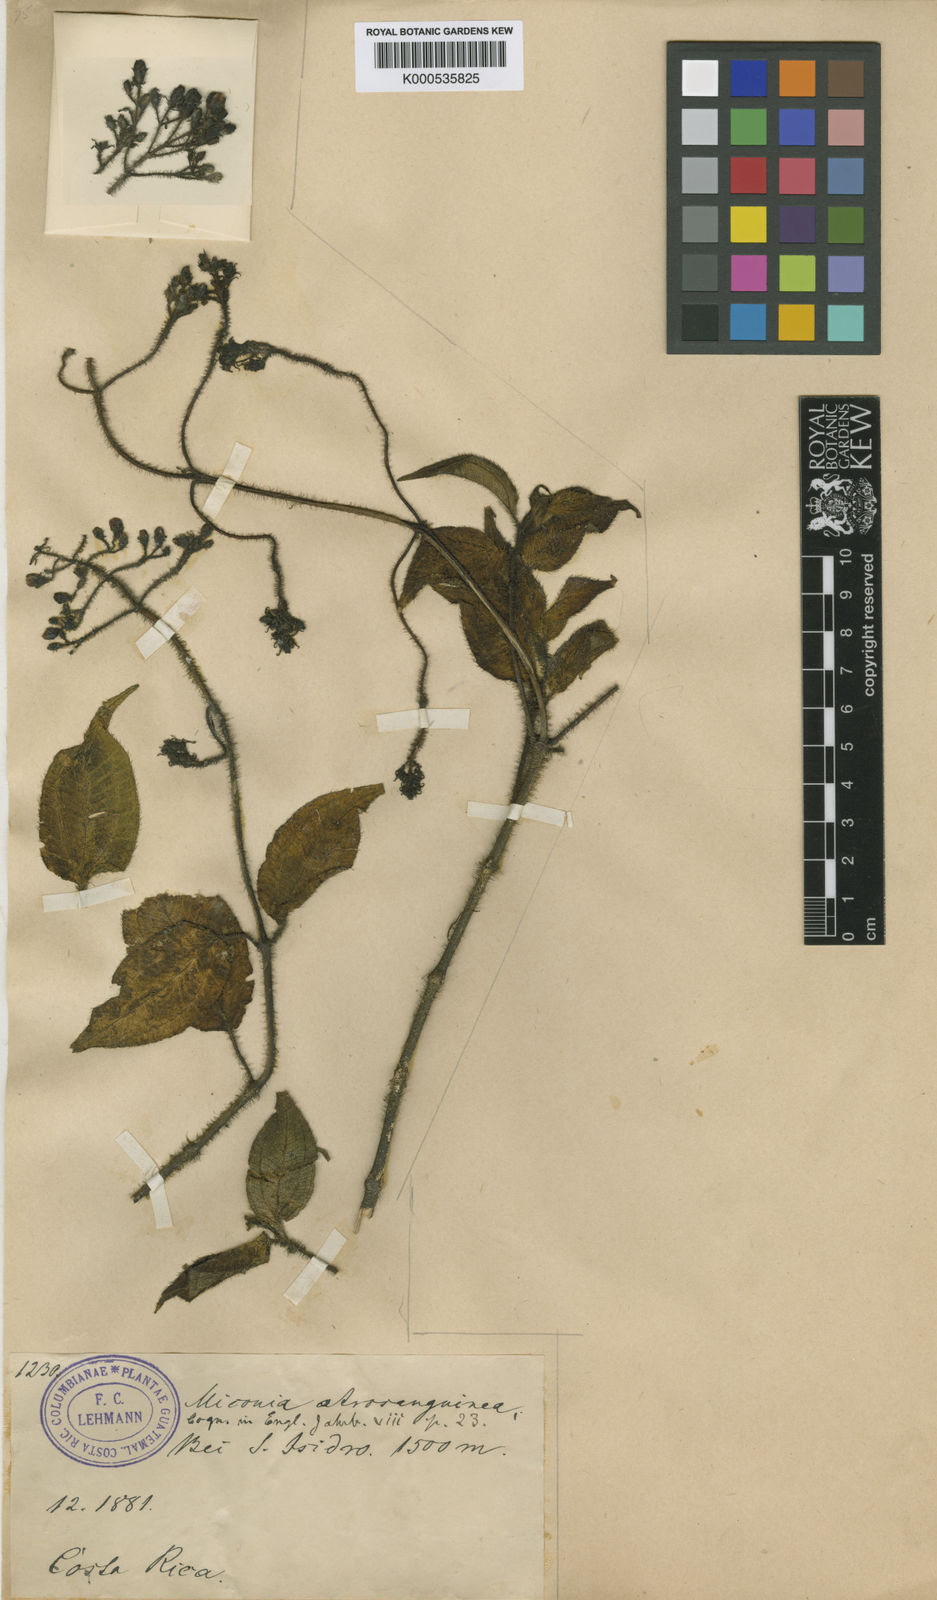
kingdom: Plantae
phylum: Tracheophyta
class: Magnoliopsida
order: Myrtales
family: Melastomataceae
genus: Miconia
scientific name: Miconia melanotricha
